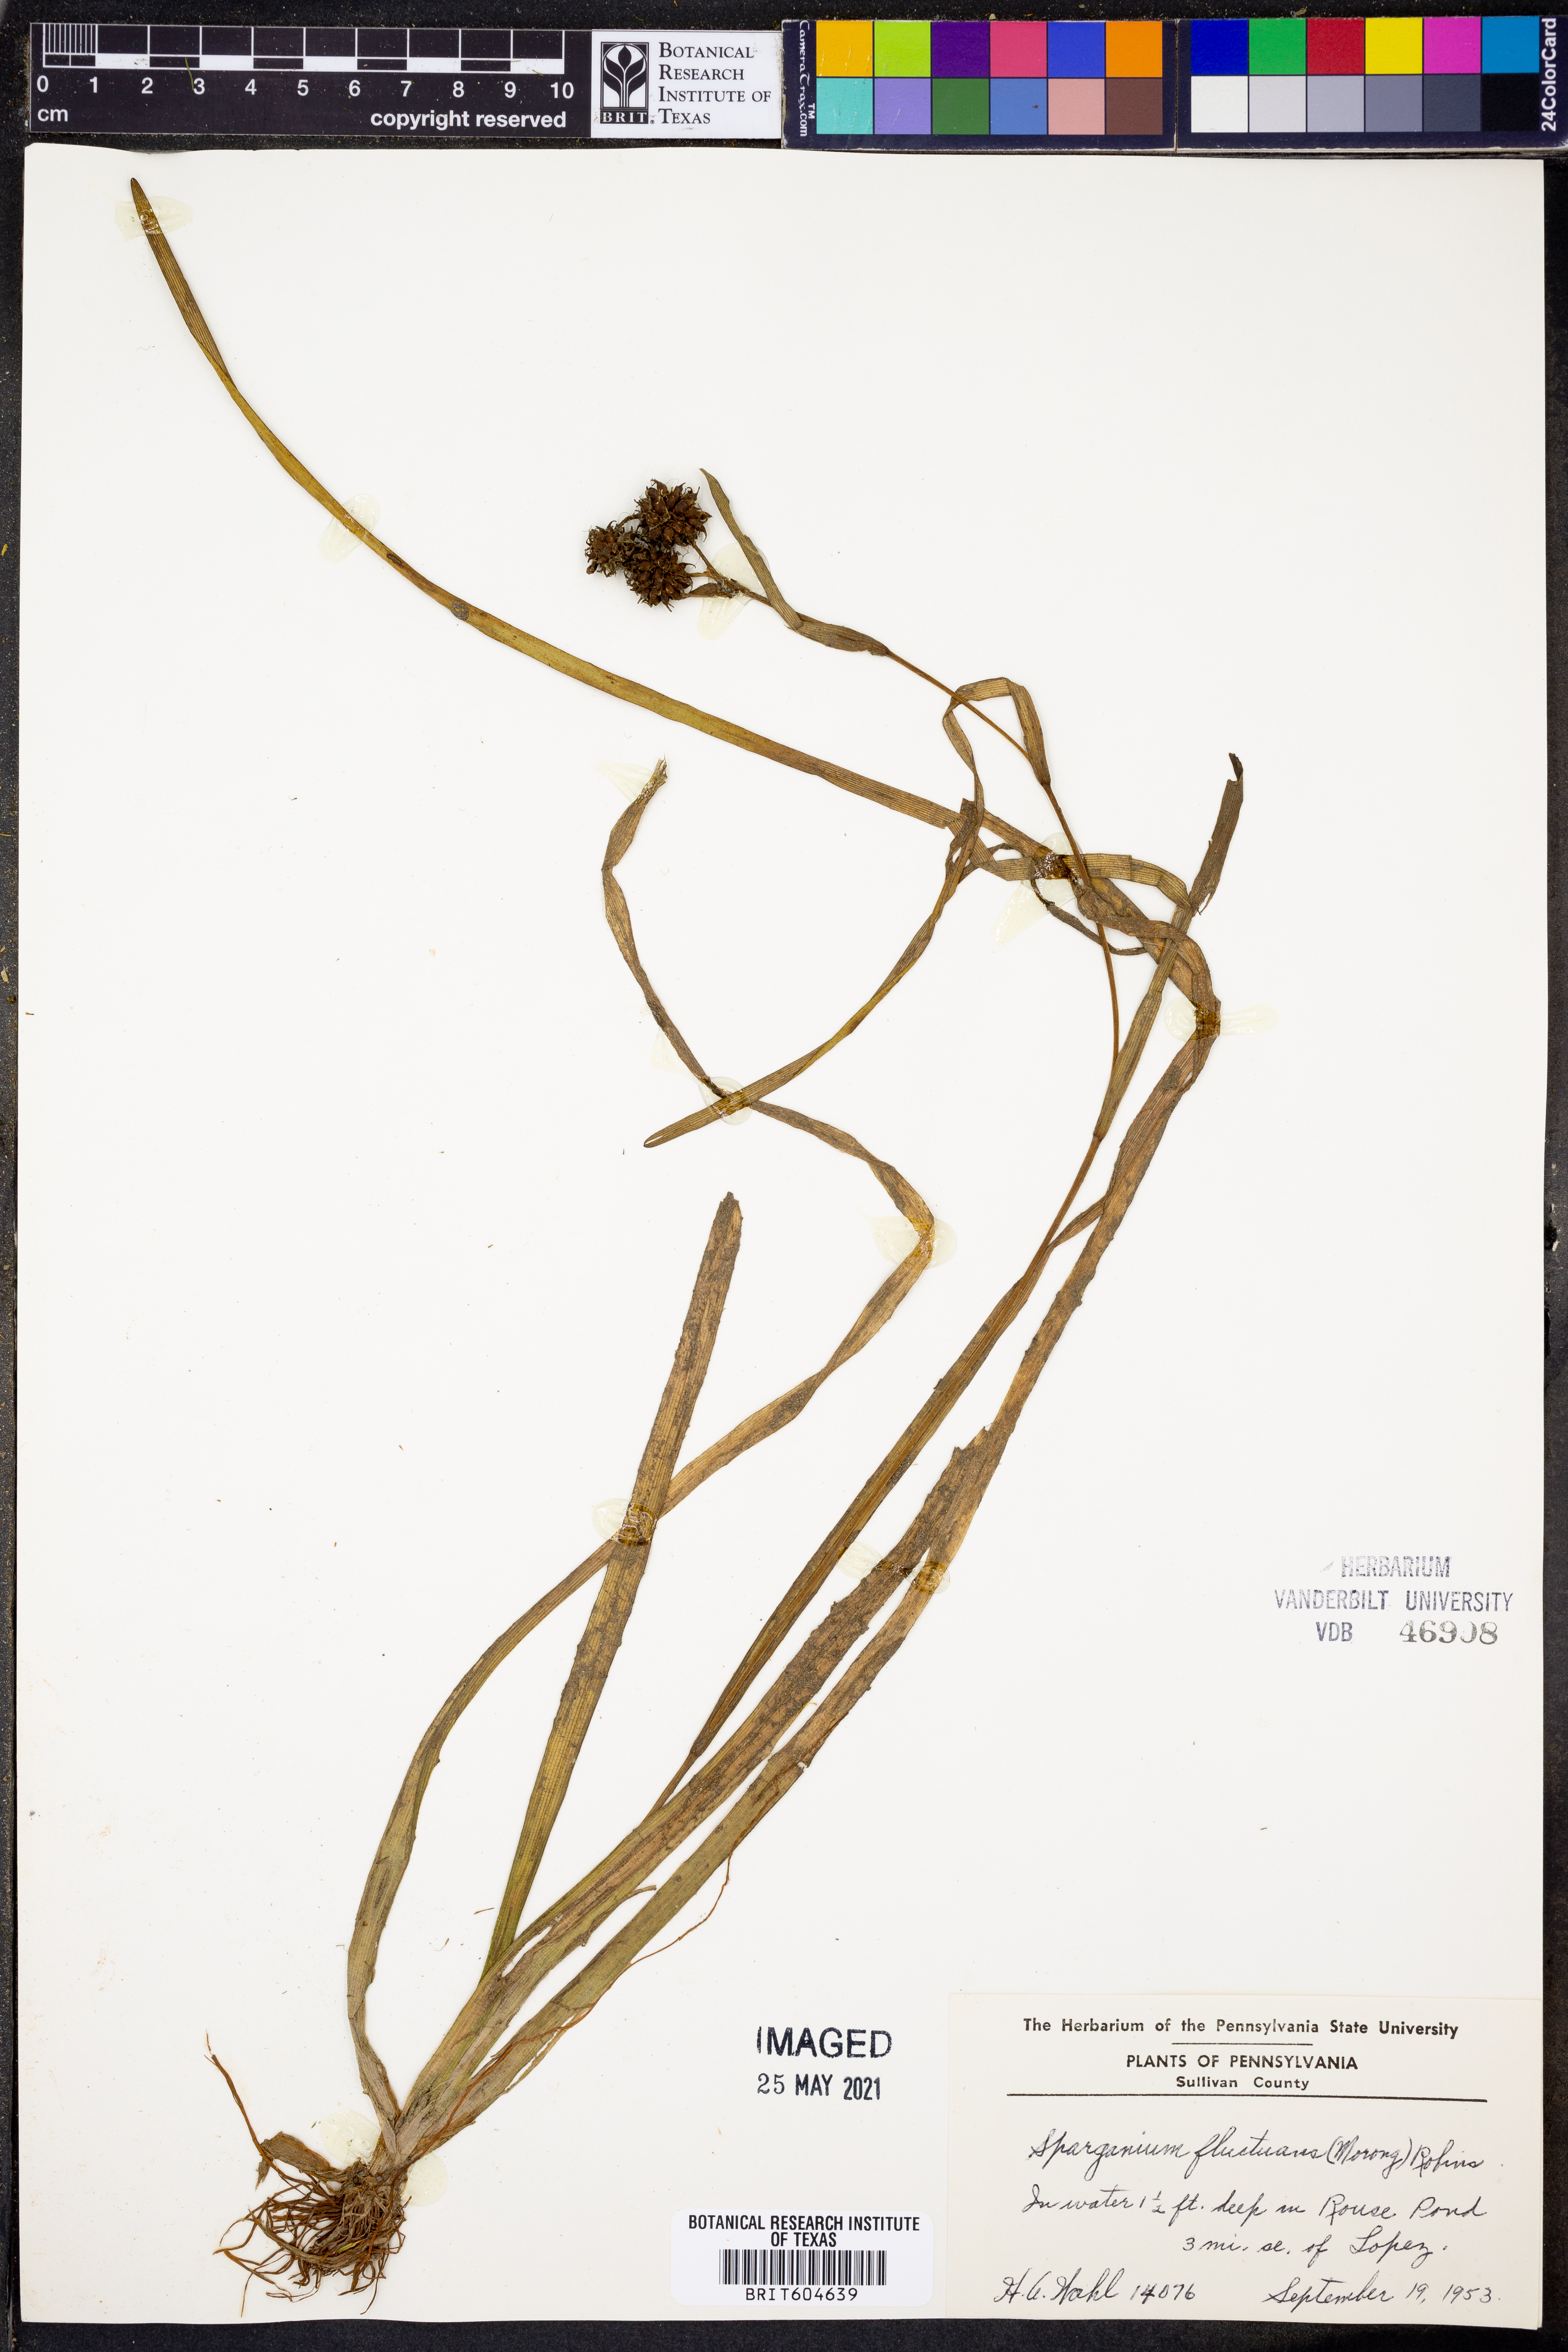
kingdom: Plantae
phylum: Tracheophyta
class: Liliopsida
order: Poales
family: Typhaceae
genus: Sparganium
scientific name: Sparganium fluctuans
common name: Floating burreed
